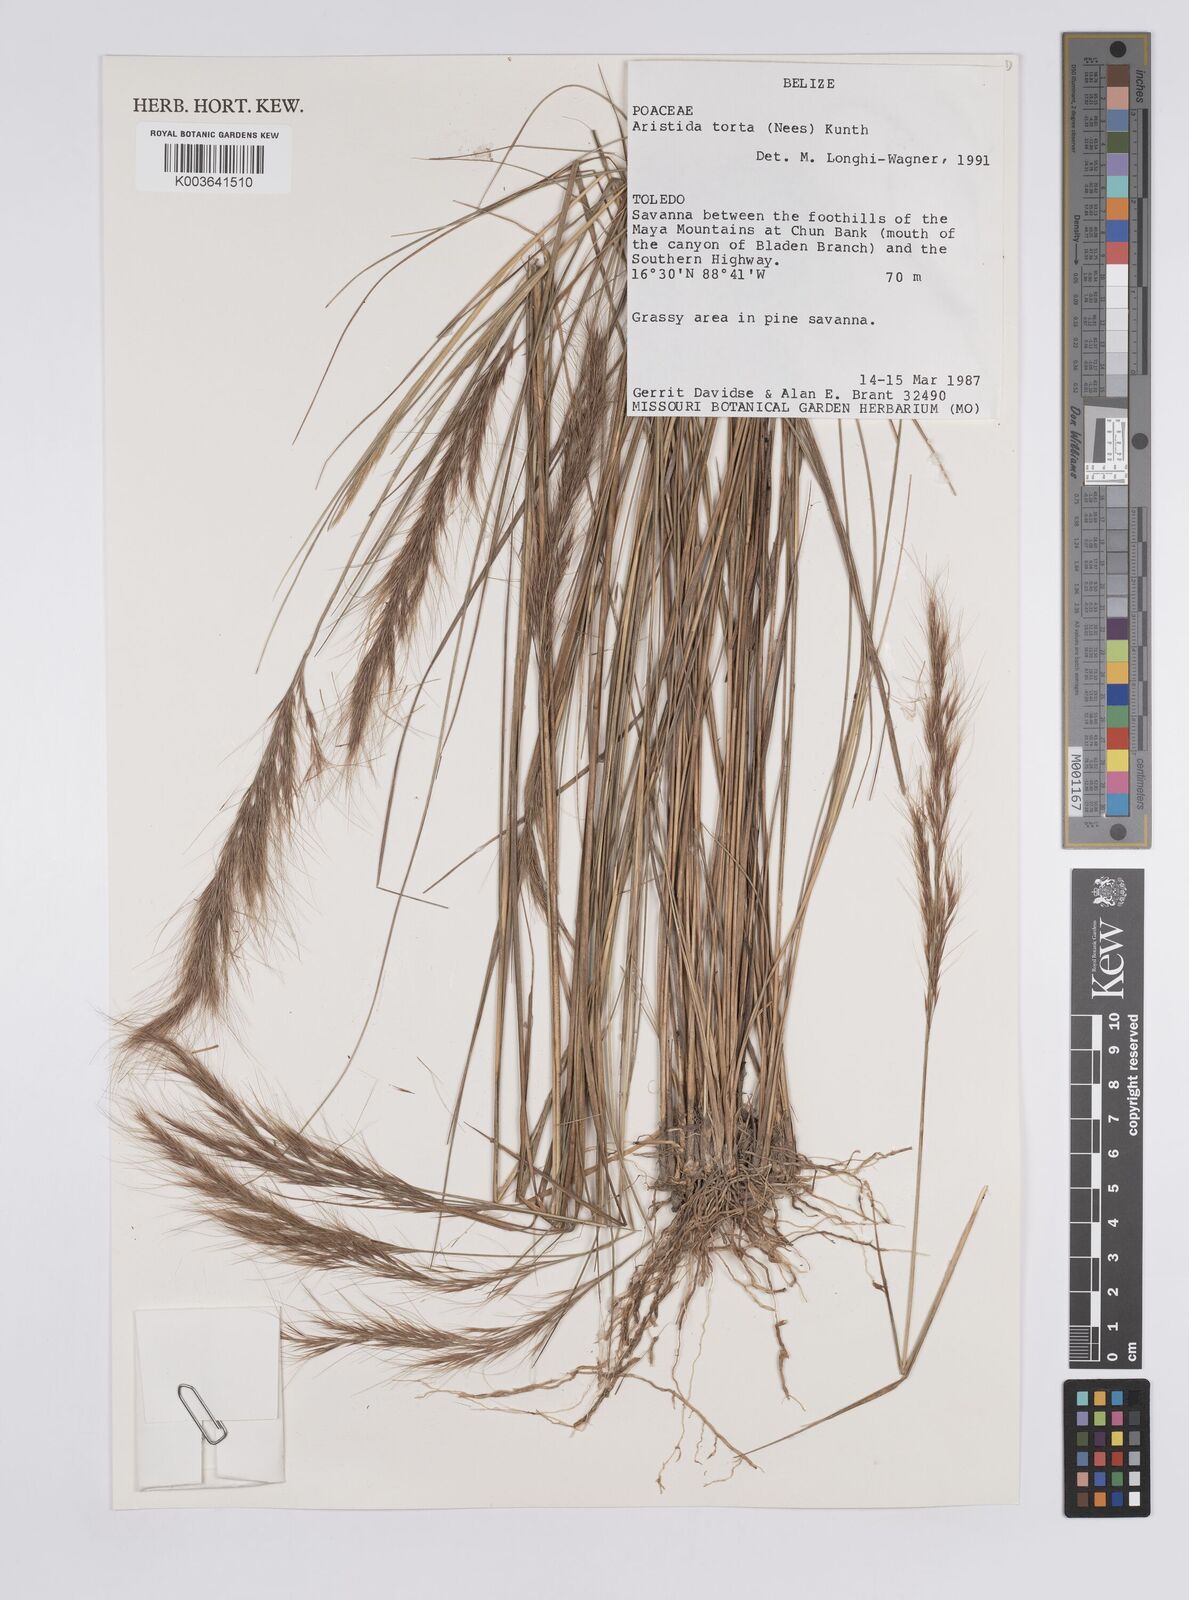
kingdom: Plantae
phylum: Tracheophyta
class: Liliopsida
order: Poales
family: Poaceae
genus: Aristida
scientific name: Aristida torta
